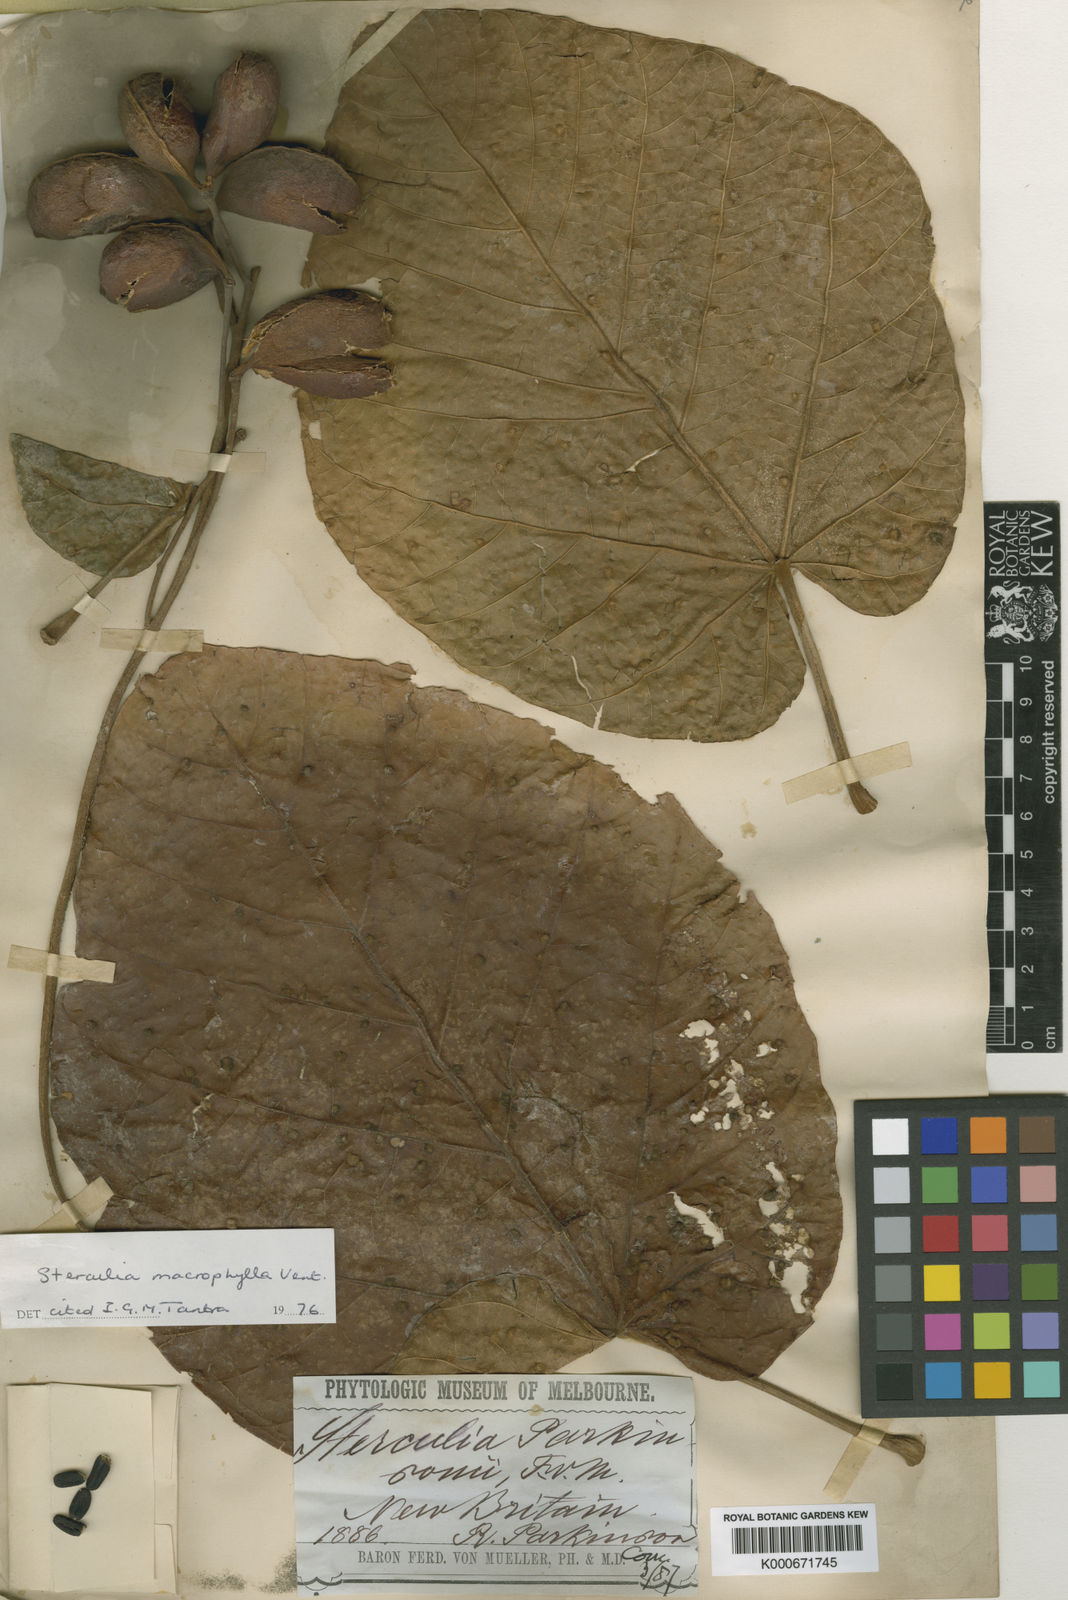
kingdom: Plantae
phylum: Tracheophyta
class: Magnoliopsida
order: Malvales
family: Malvaceae
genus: Sterculia
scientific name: Sterculia macrophylla
